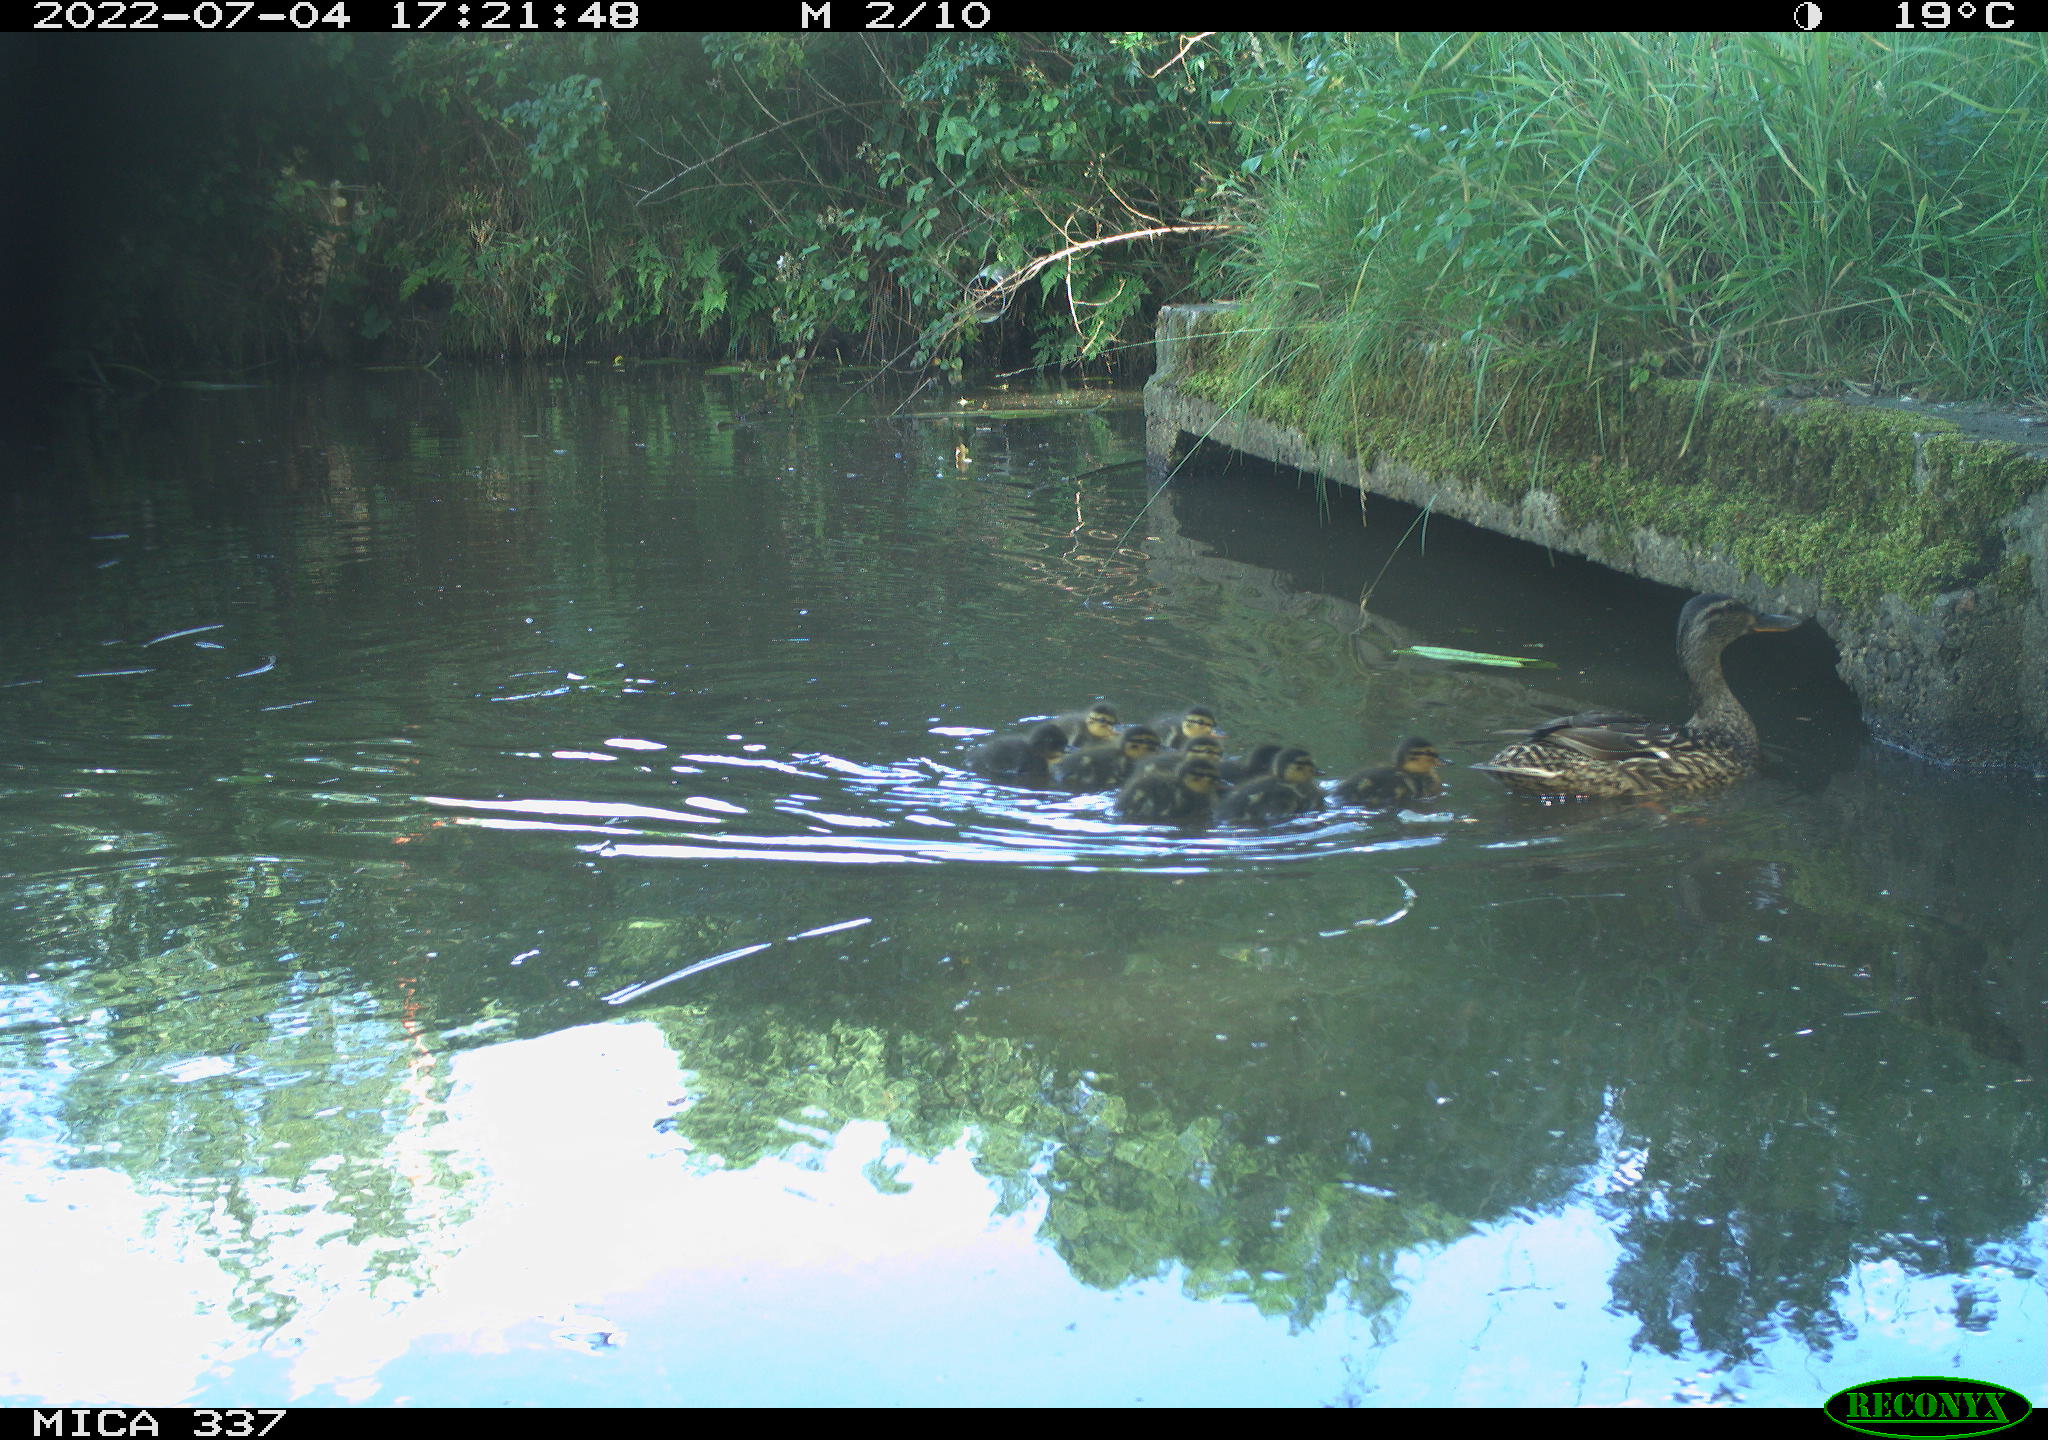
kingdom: Animalia
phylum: Chordata
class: Aves
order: Anseriformes
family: Anatidae
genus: Anas
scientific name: Anas platyrhynchos
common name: Mallard
